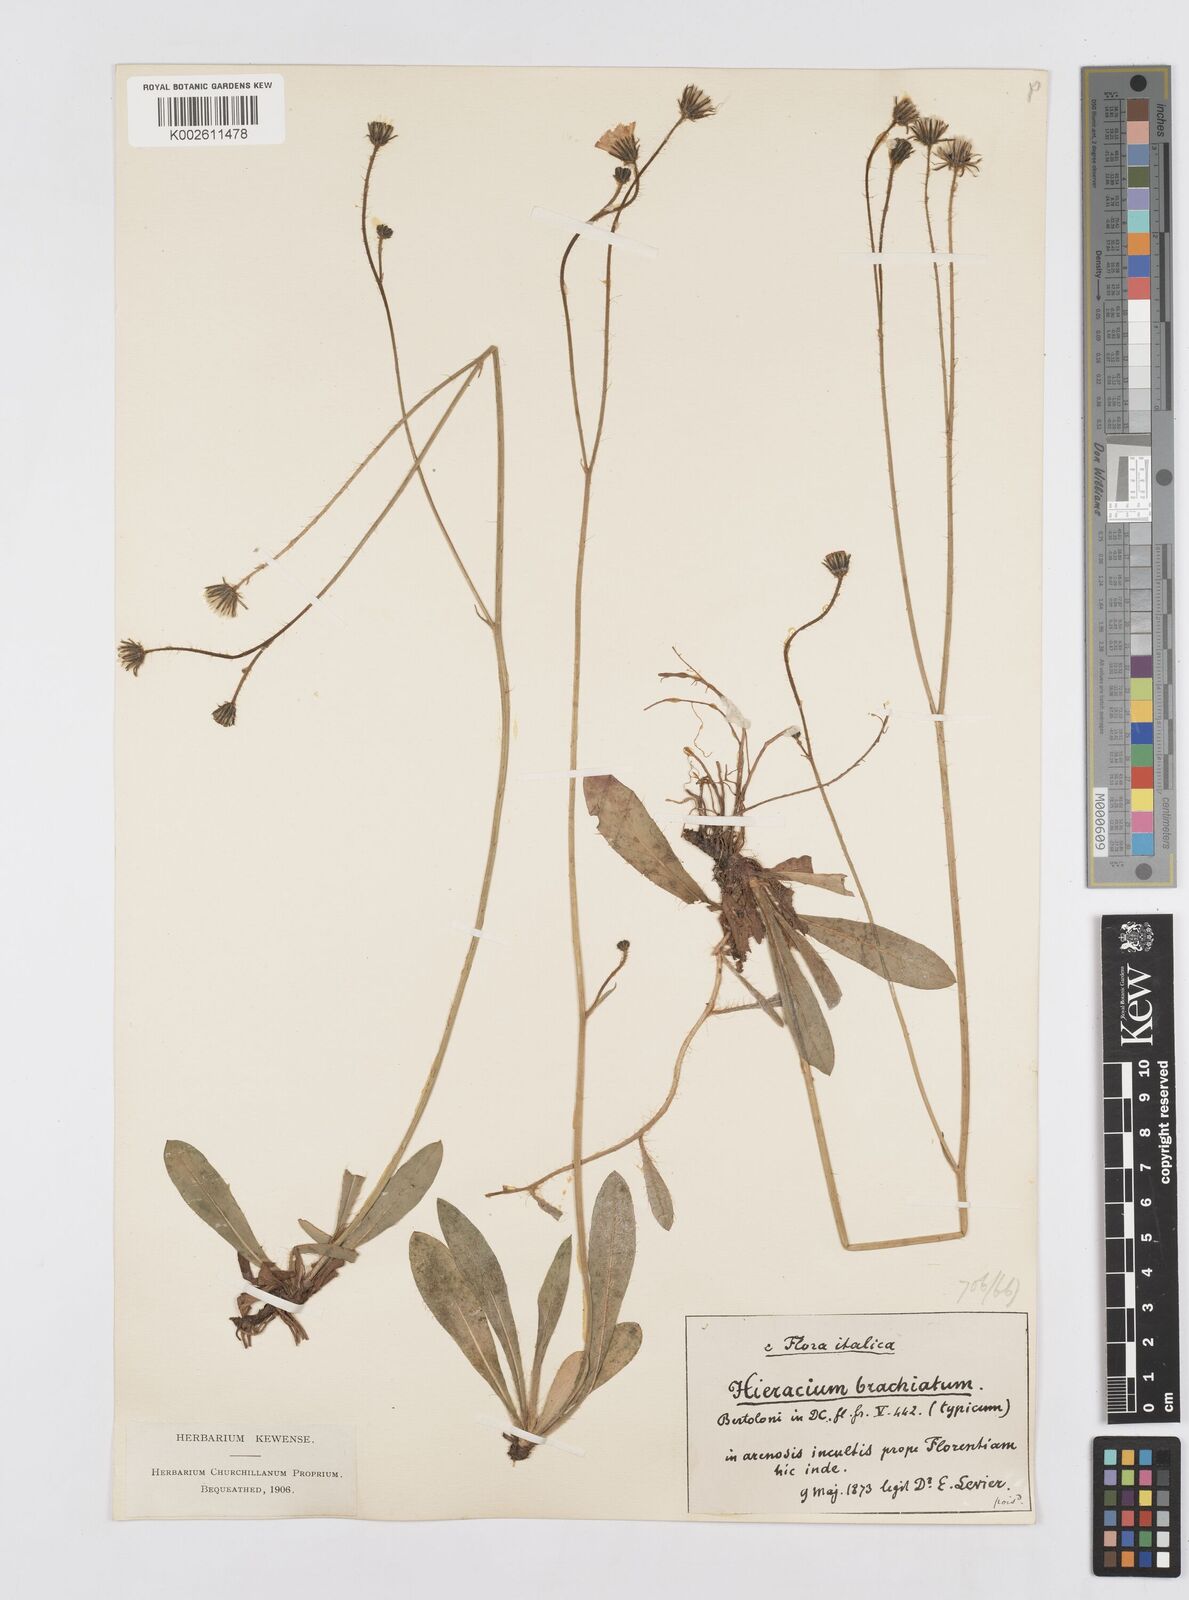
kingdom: Plantae
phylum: Tracheophyta
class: Magnoliopsida
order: Asterales
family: Asteraceae
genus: Pilosella
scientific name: Pilosella acutifolia
